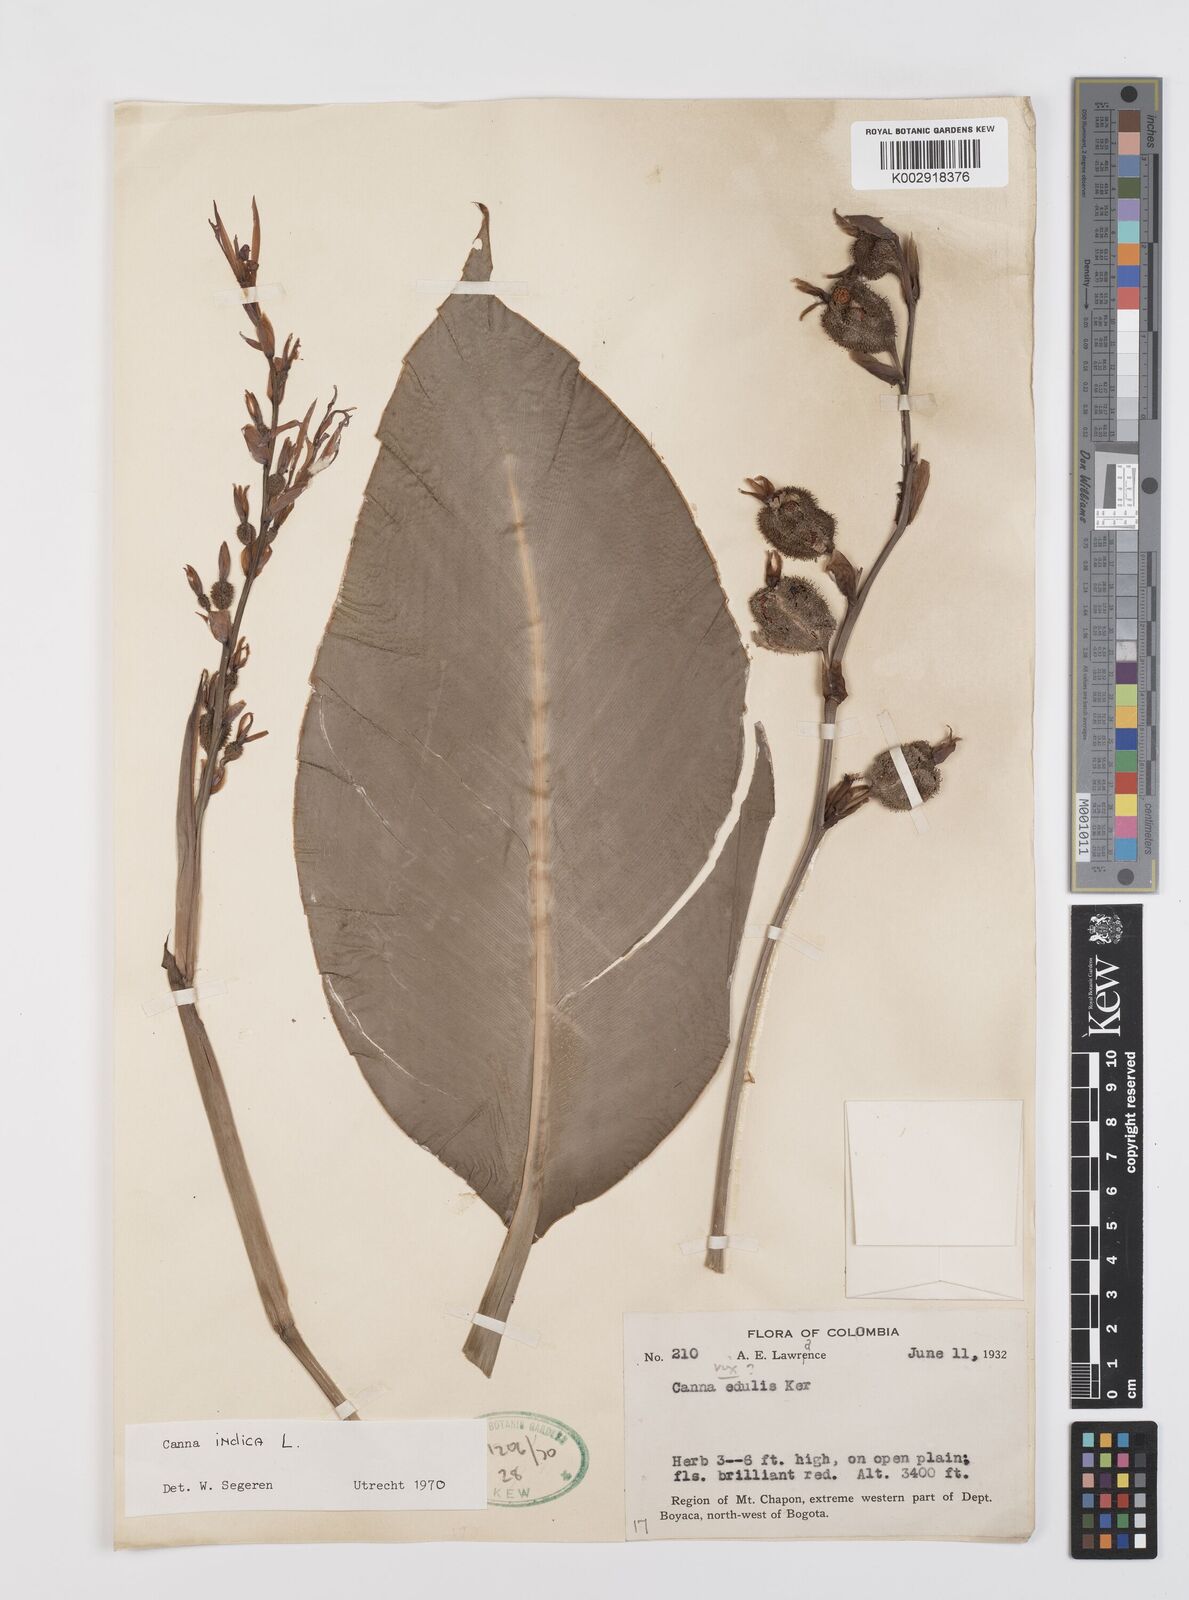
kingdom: Plantae
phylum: Tracheophyta
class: Liliopsida
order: Zingiberales
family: Cannaceae
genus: Canna
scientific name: Canna indica
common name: Indian shot
